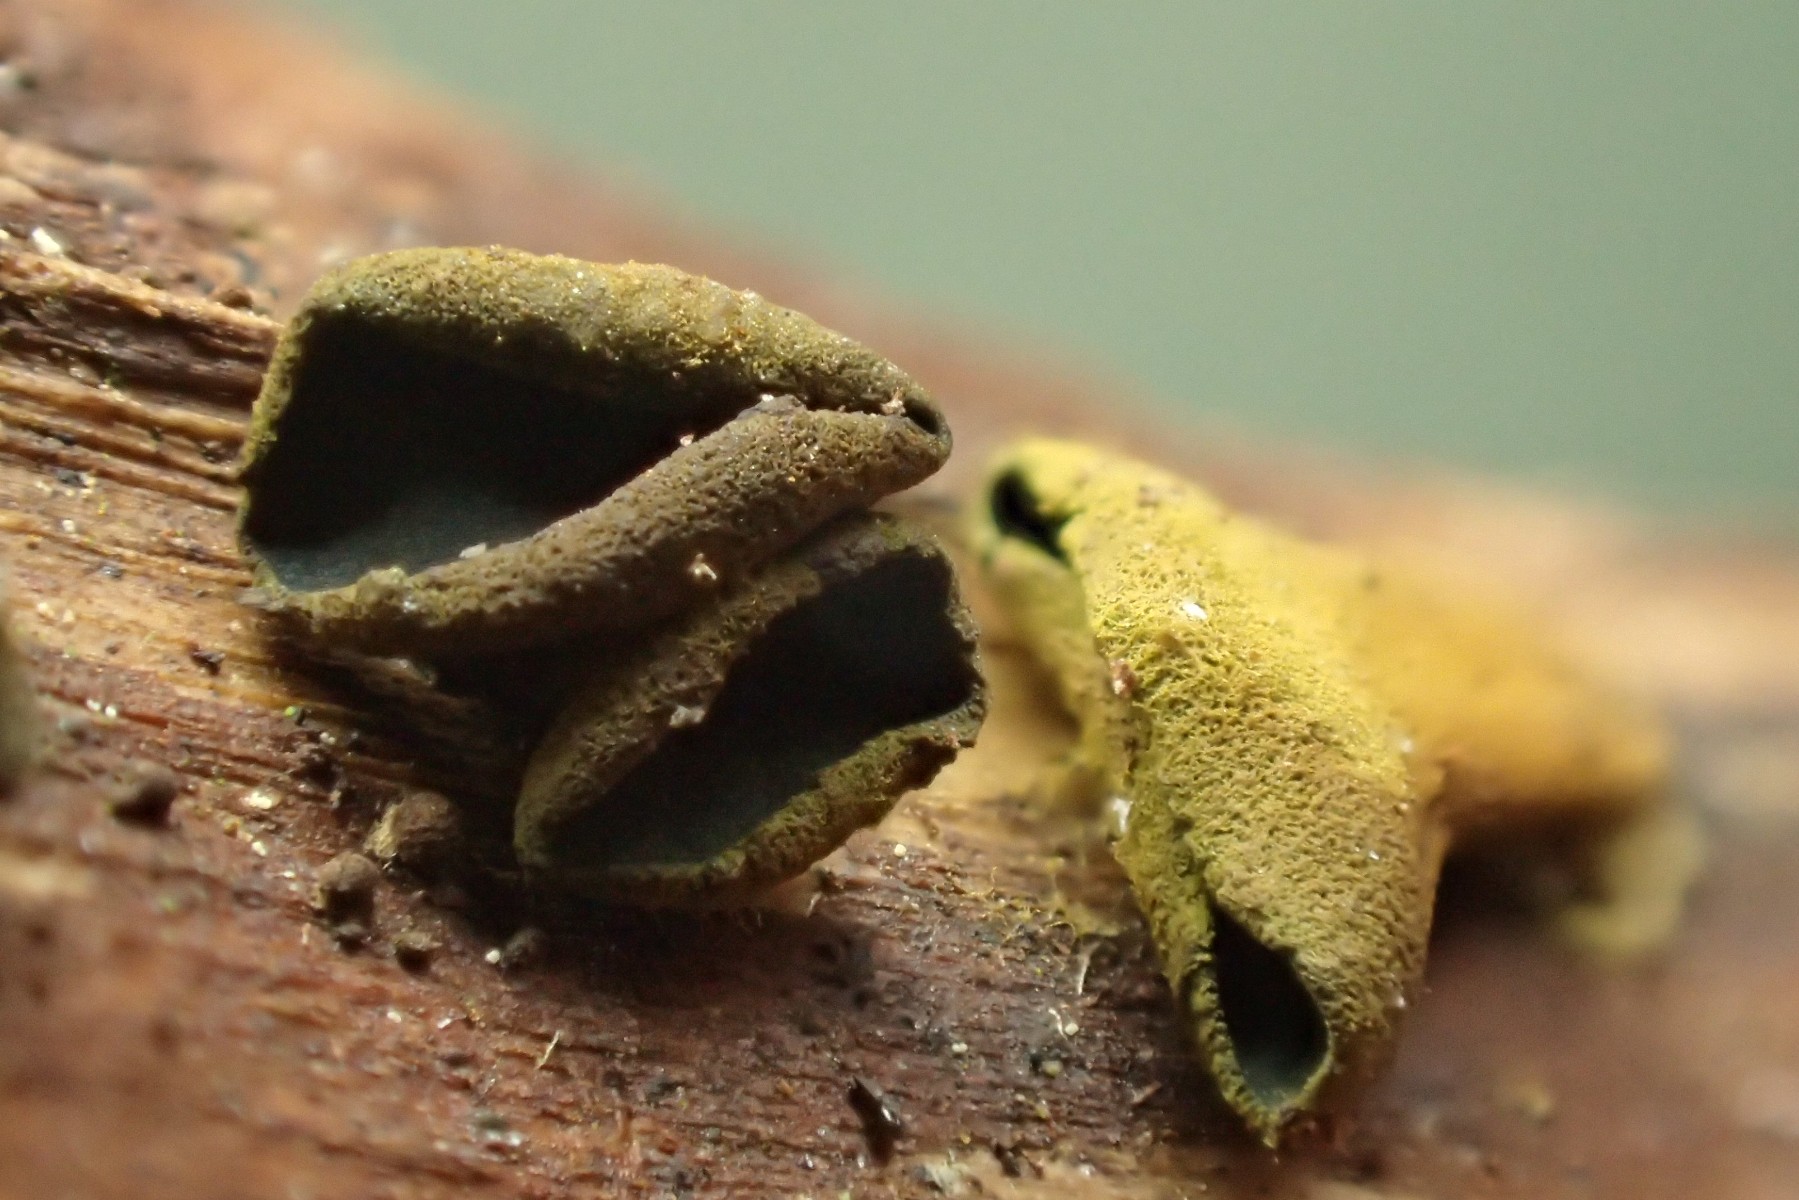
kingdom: Fungi
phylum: Ascomycota
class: Leotiomycetes
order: Helotiales
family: Cordieritidaceae
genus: Ionomidotis
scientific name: Ionomidotis fulvotingens
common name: rødmende tjæreskive
